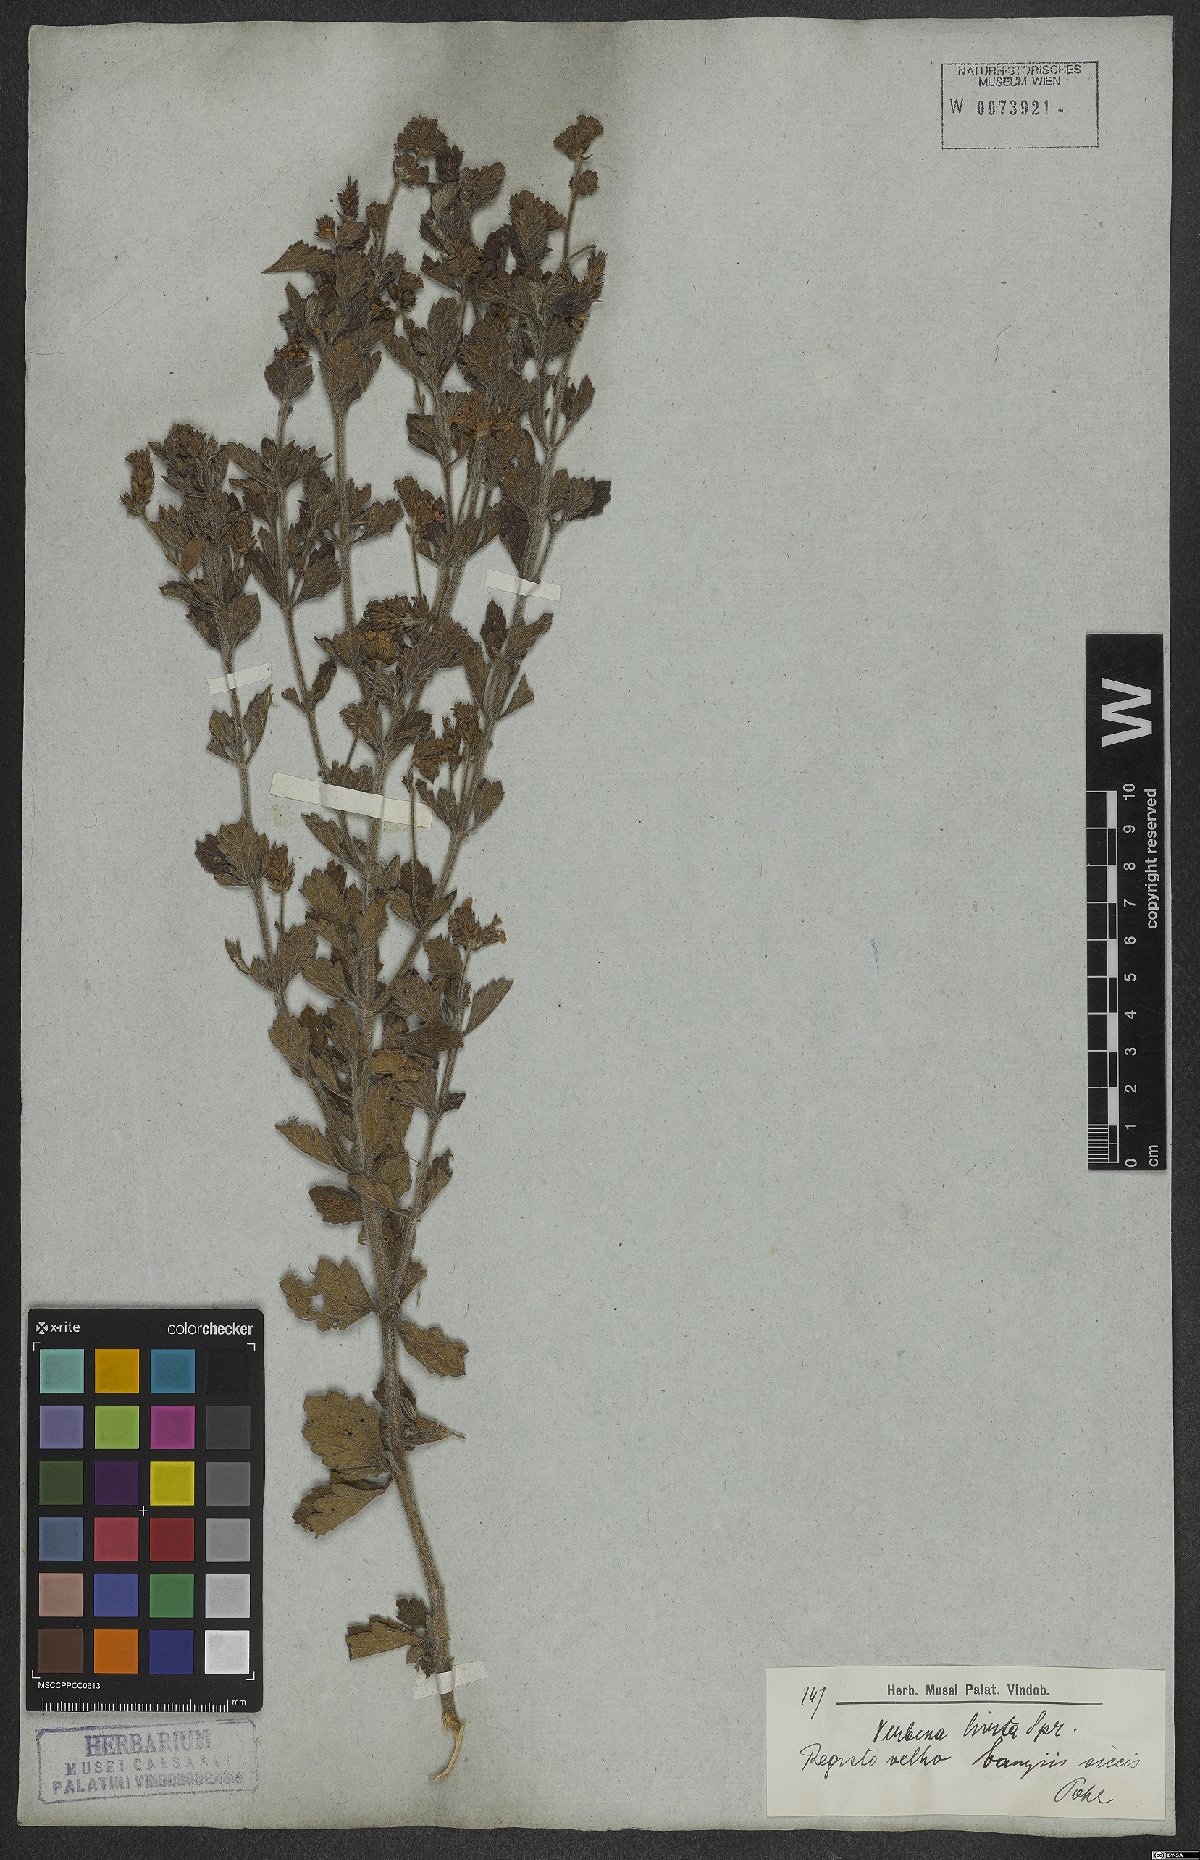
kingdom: Plantae
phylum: Tracheophyta
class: Magnoliopsida
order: Lamiales
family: Verbenaceae
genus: Verbena
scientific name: Verbena hirta
